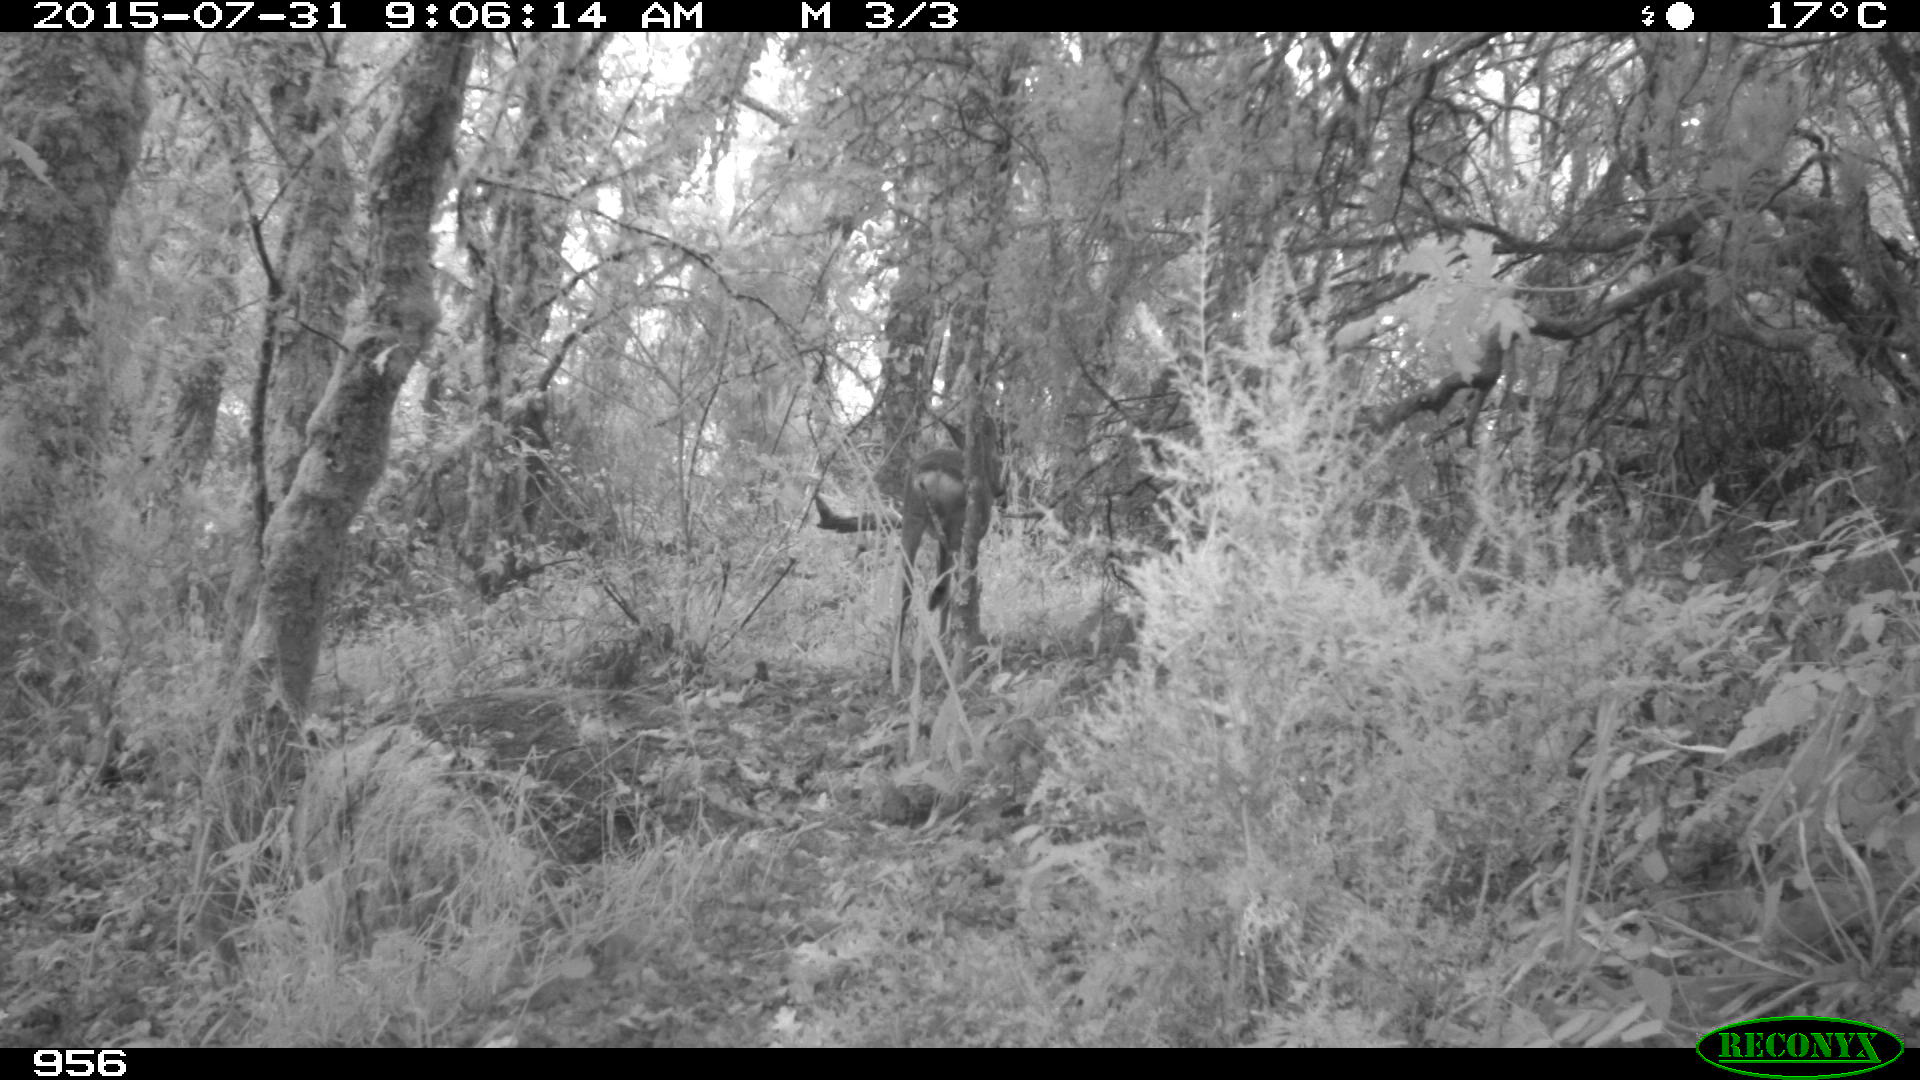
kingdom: Animalia
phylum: Chordata
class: Mammalia
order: Artiodactyla
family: Bovidae
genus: Bos
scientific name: Bos taurus
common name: Domesticated cattle
